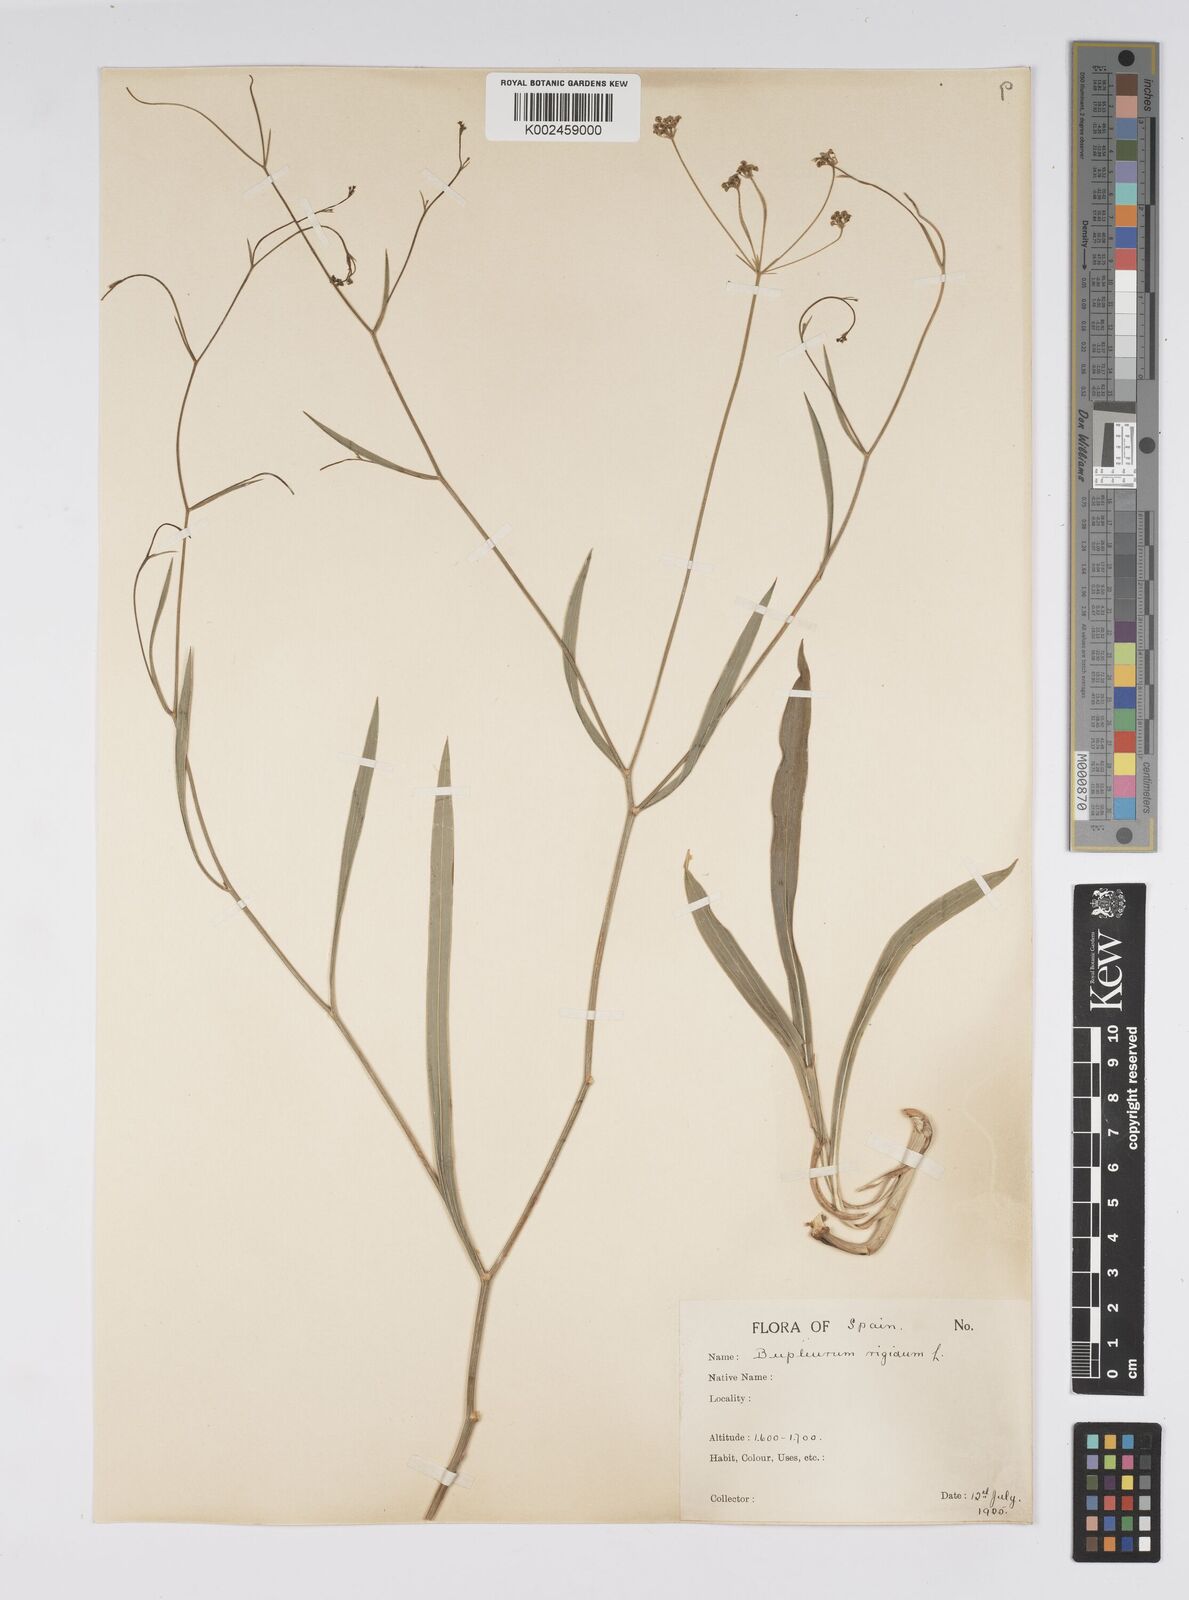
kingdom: Plantae
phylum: Tracheophyta
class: Magnoliopsida
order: Apiales
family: Apiaceae
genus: Bupleurum
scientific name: Bupleurum rigidum
